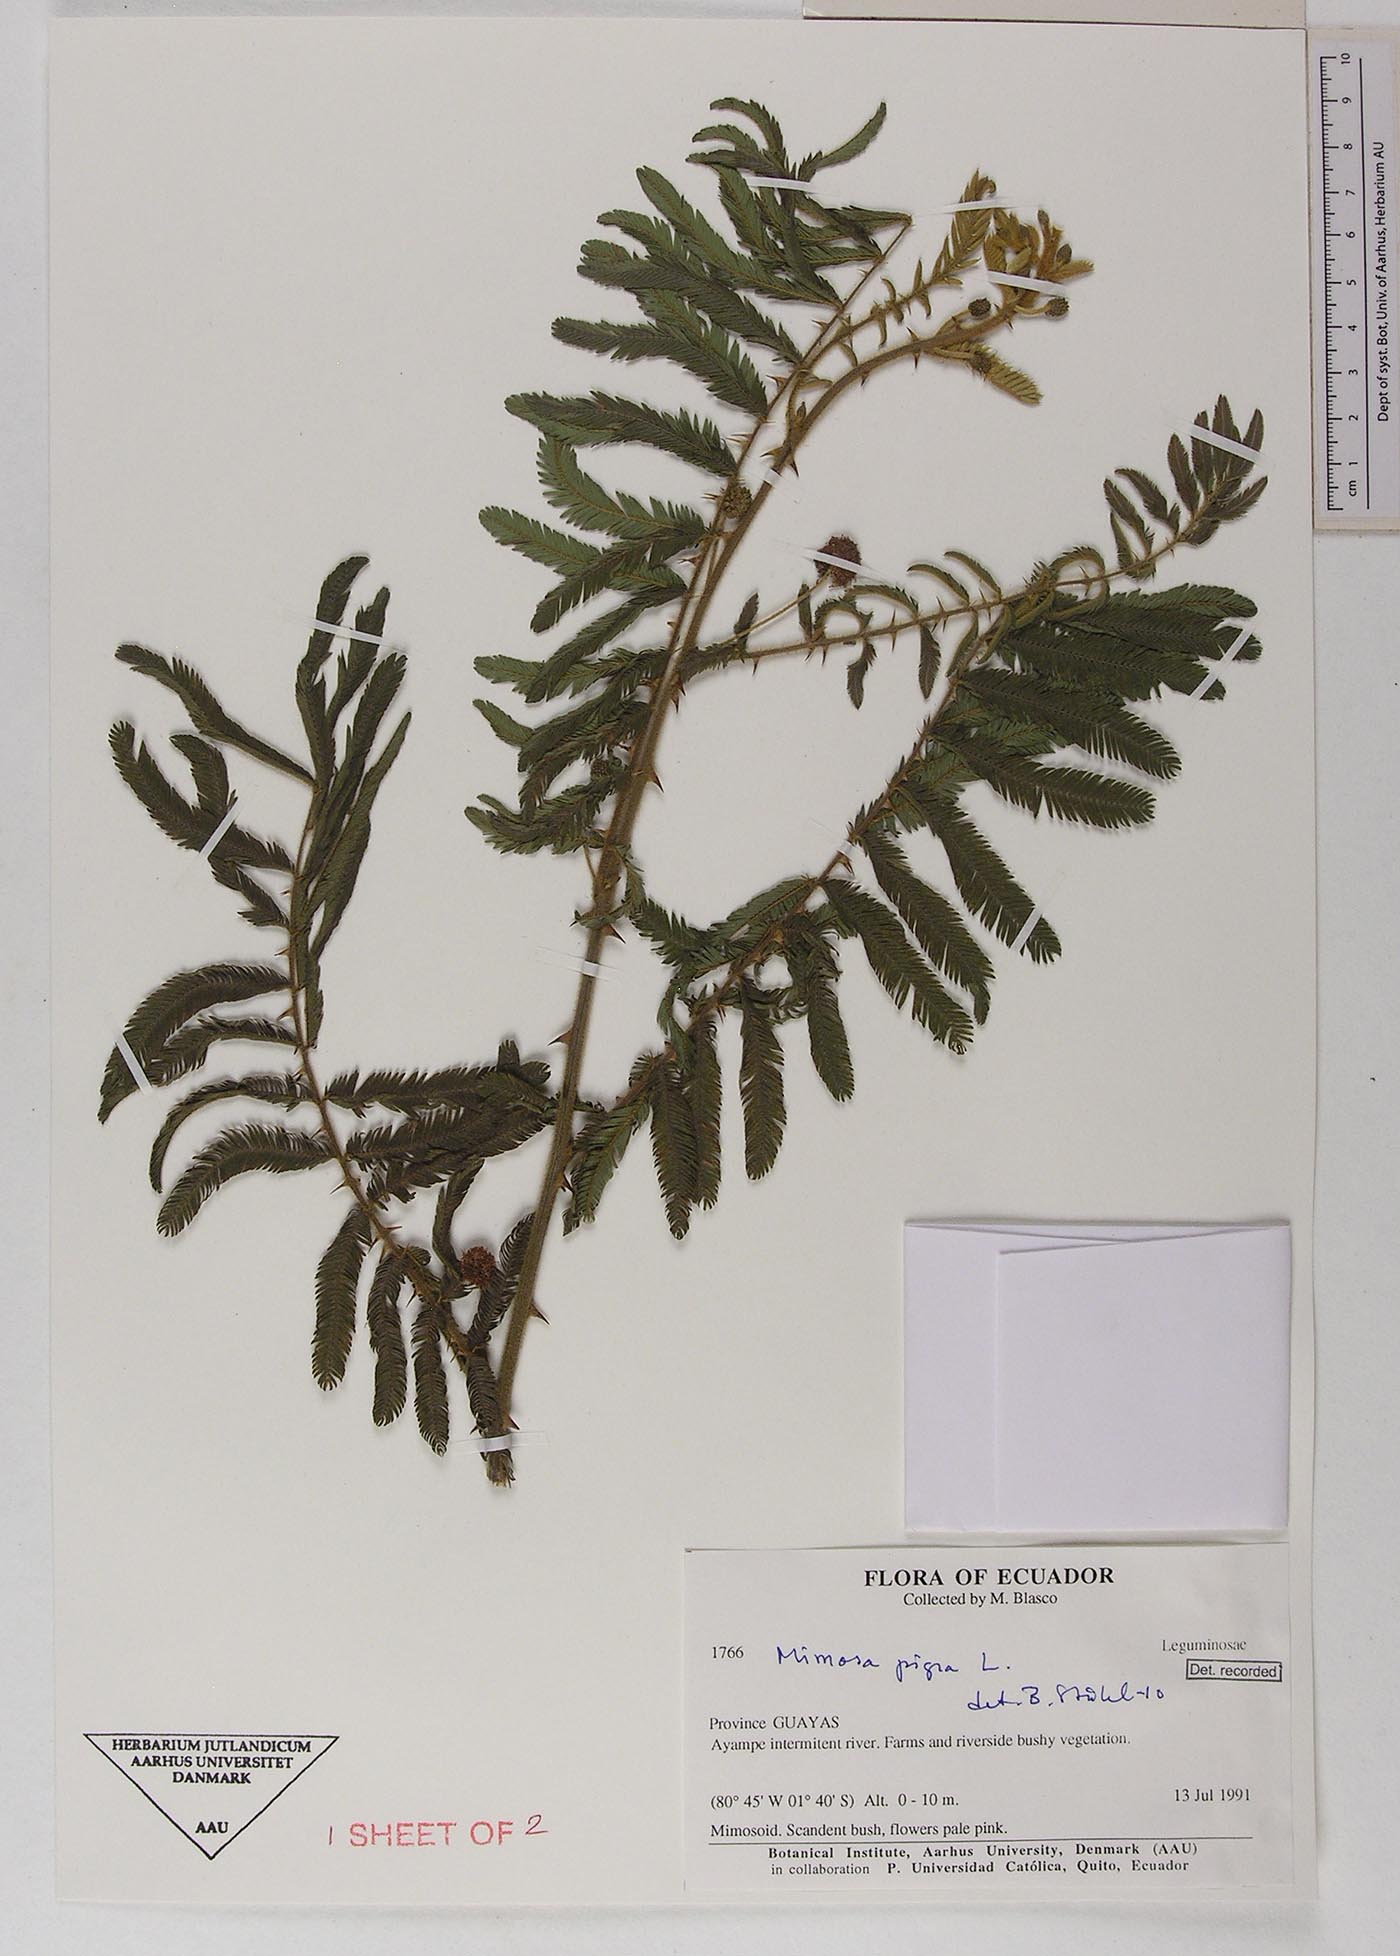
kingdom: Plantae
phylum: Tracheophyta
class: Magnoliopsida
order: Fabales
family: Fabaceae
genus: Mimosa
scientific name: Mimosa pigra
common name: Black mimosa
